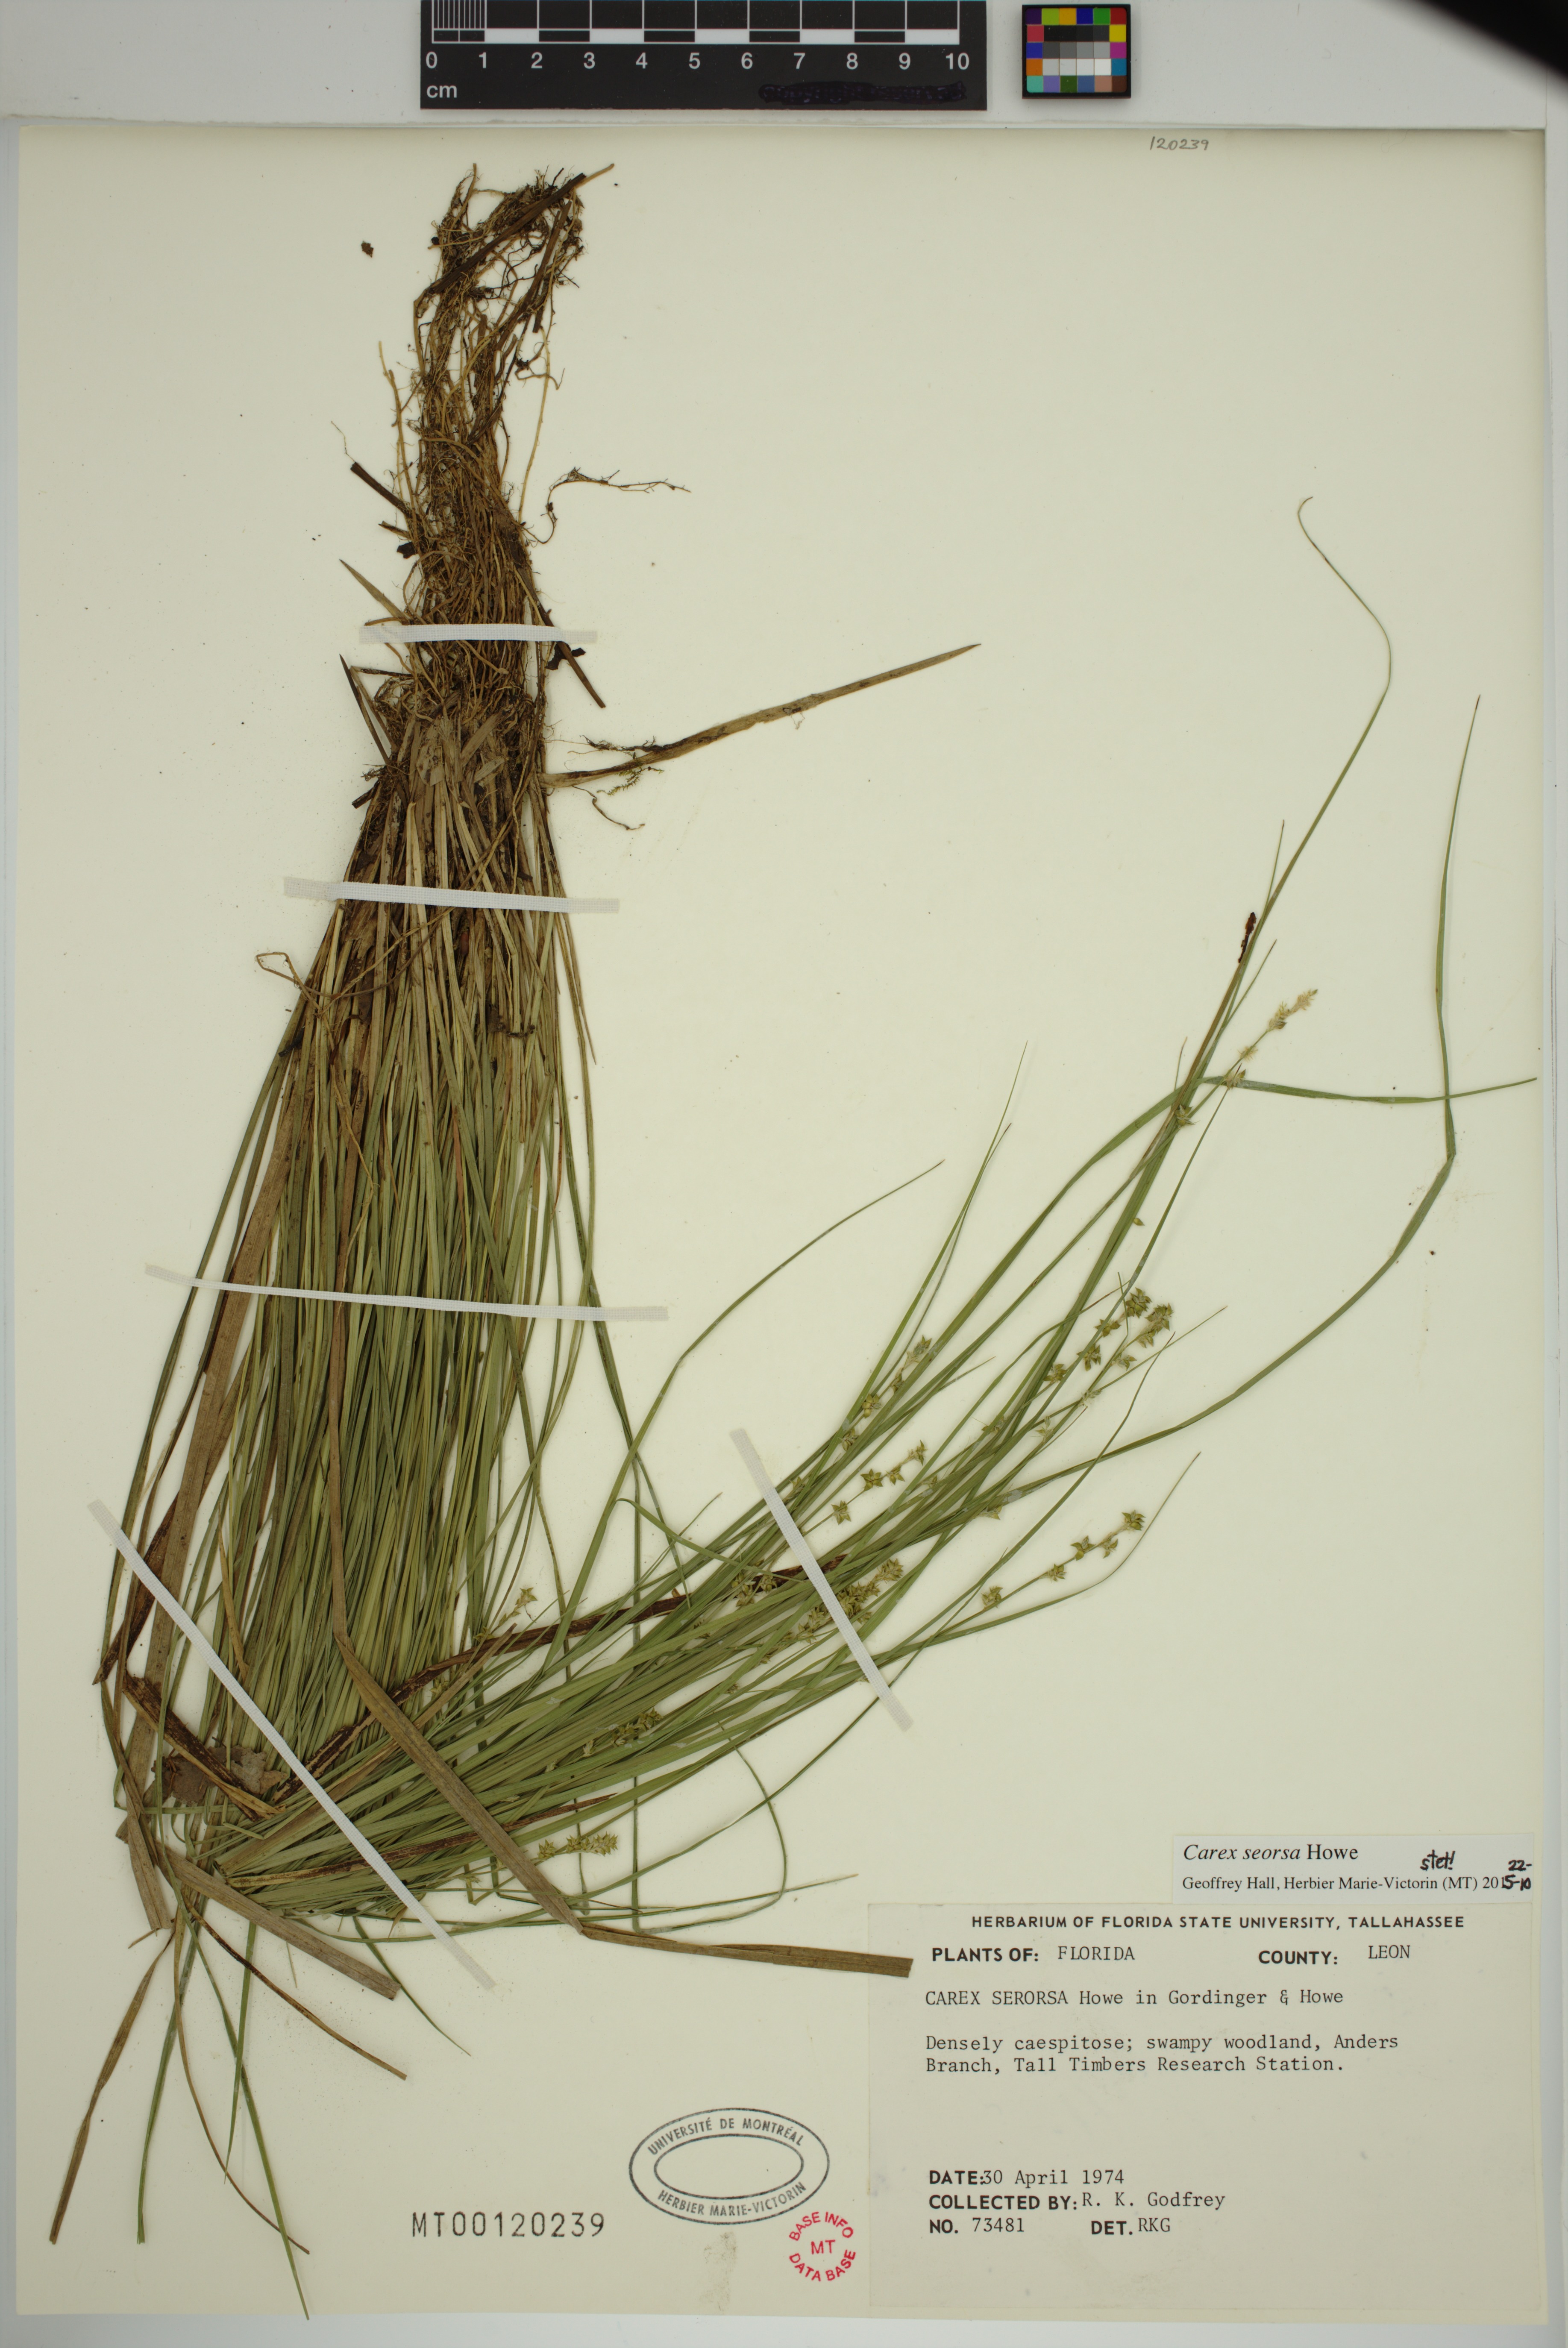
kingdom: Plantae
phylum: Tracheophyta
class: Liliopsida
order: Poales
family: Cyperaceae
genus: Carex
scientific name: Carex seorsa
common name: Swamp star sedge
